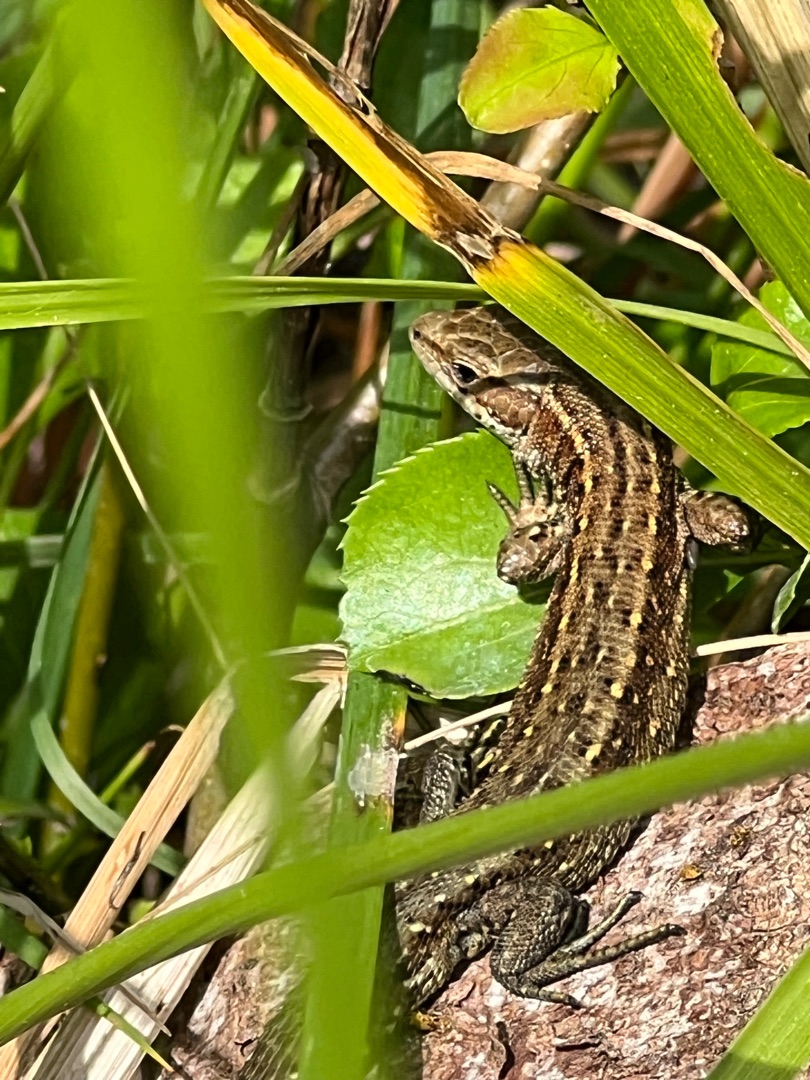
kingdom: Animalia
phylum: Chordata
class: Squamata
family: Lacertidae
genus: Zootoca
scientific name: Zootoca vivipara
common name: Skovfirben
